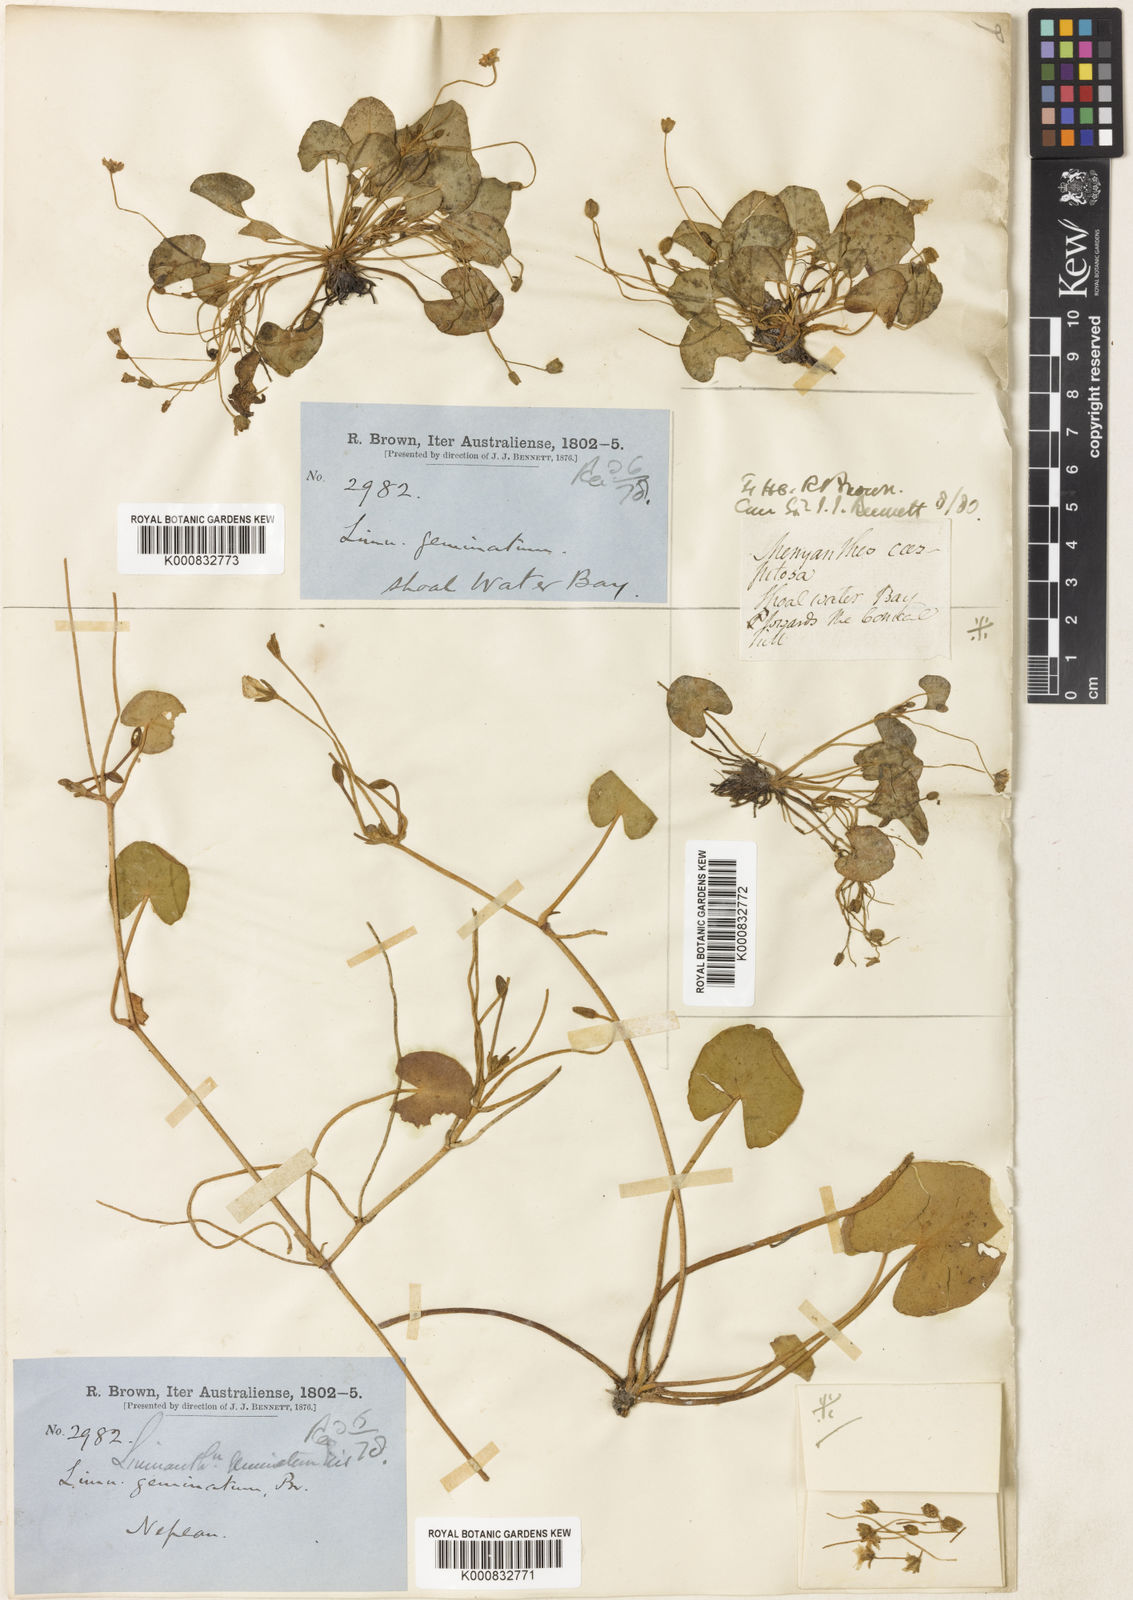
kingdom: Plantae
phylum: Tracheophyta
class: Magnoliopsida
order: Asterales
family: Menyanthaceae
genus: Nymphoides
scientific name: Nymphoides geminata
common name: Entire marshwort
